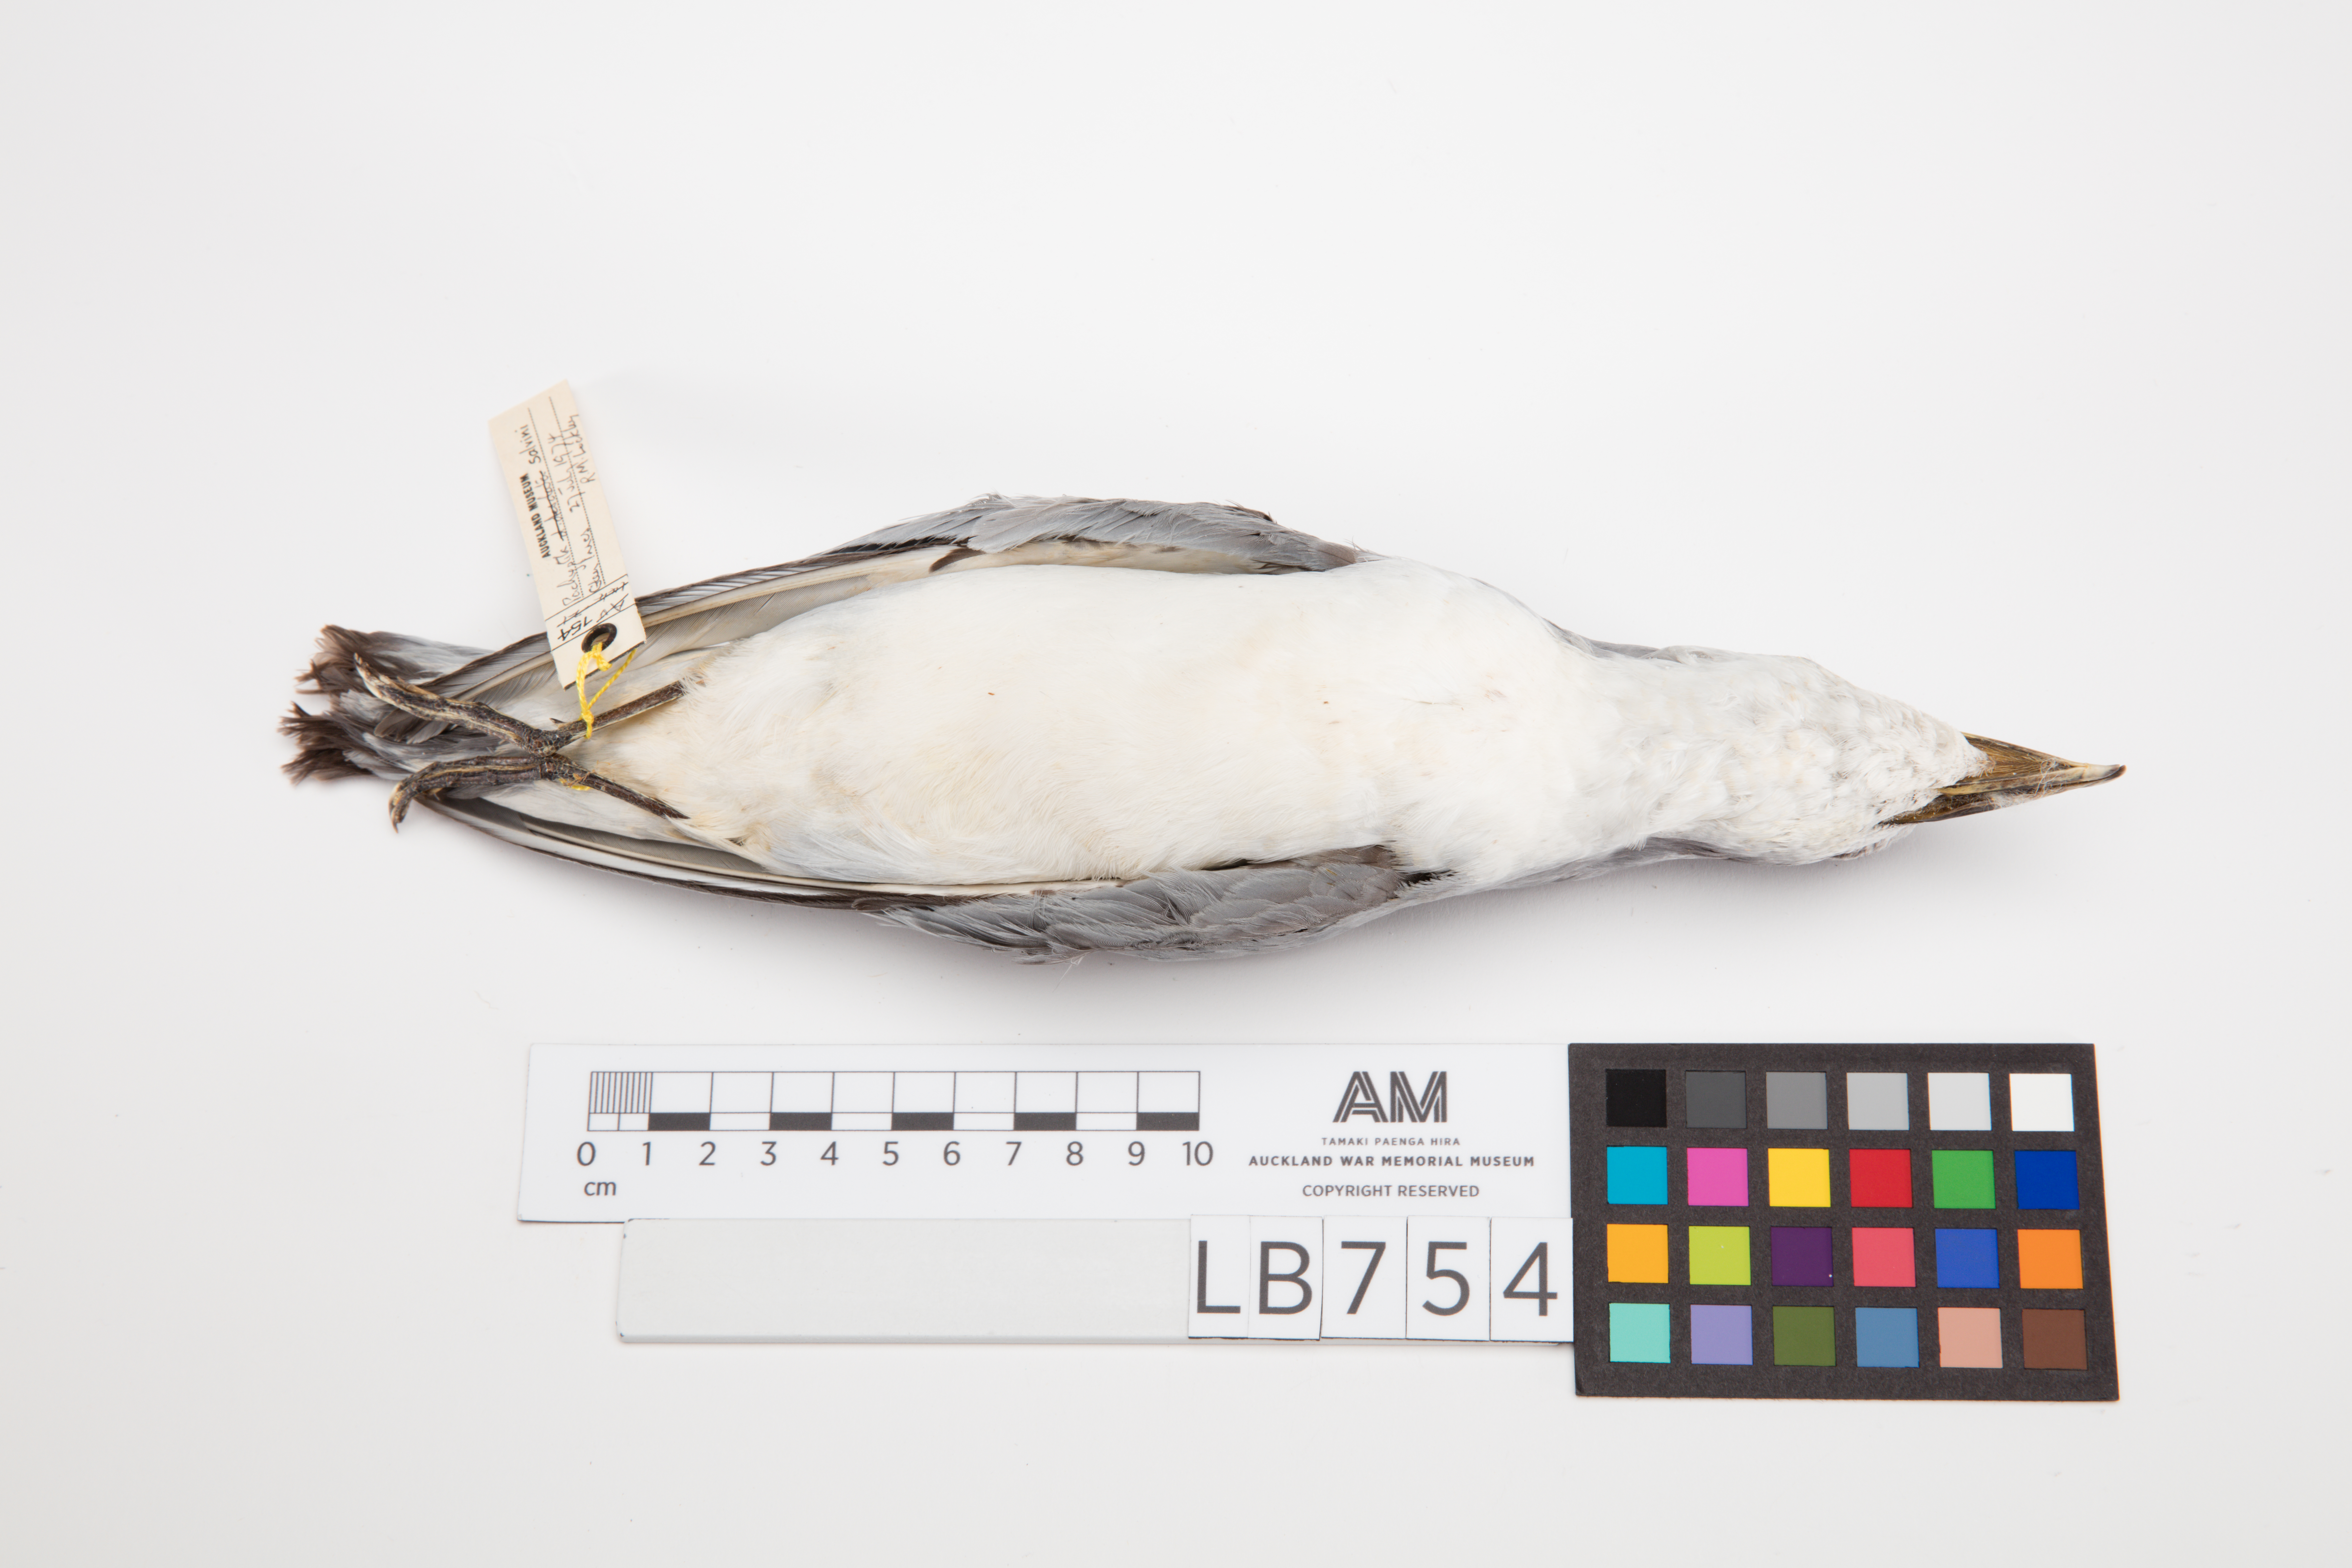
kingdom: Animalia
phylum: Chordata
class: Aves
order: Procellariiformes
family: Procellariidae
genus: Pachyptila
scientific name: Pachyptila salvini
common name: Salvin's prion
